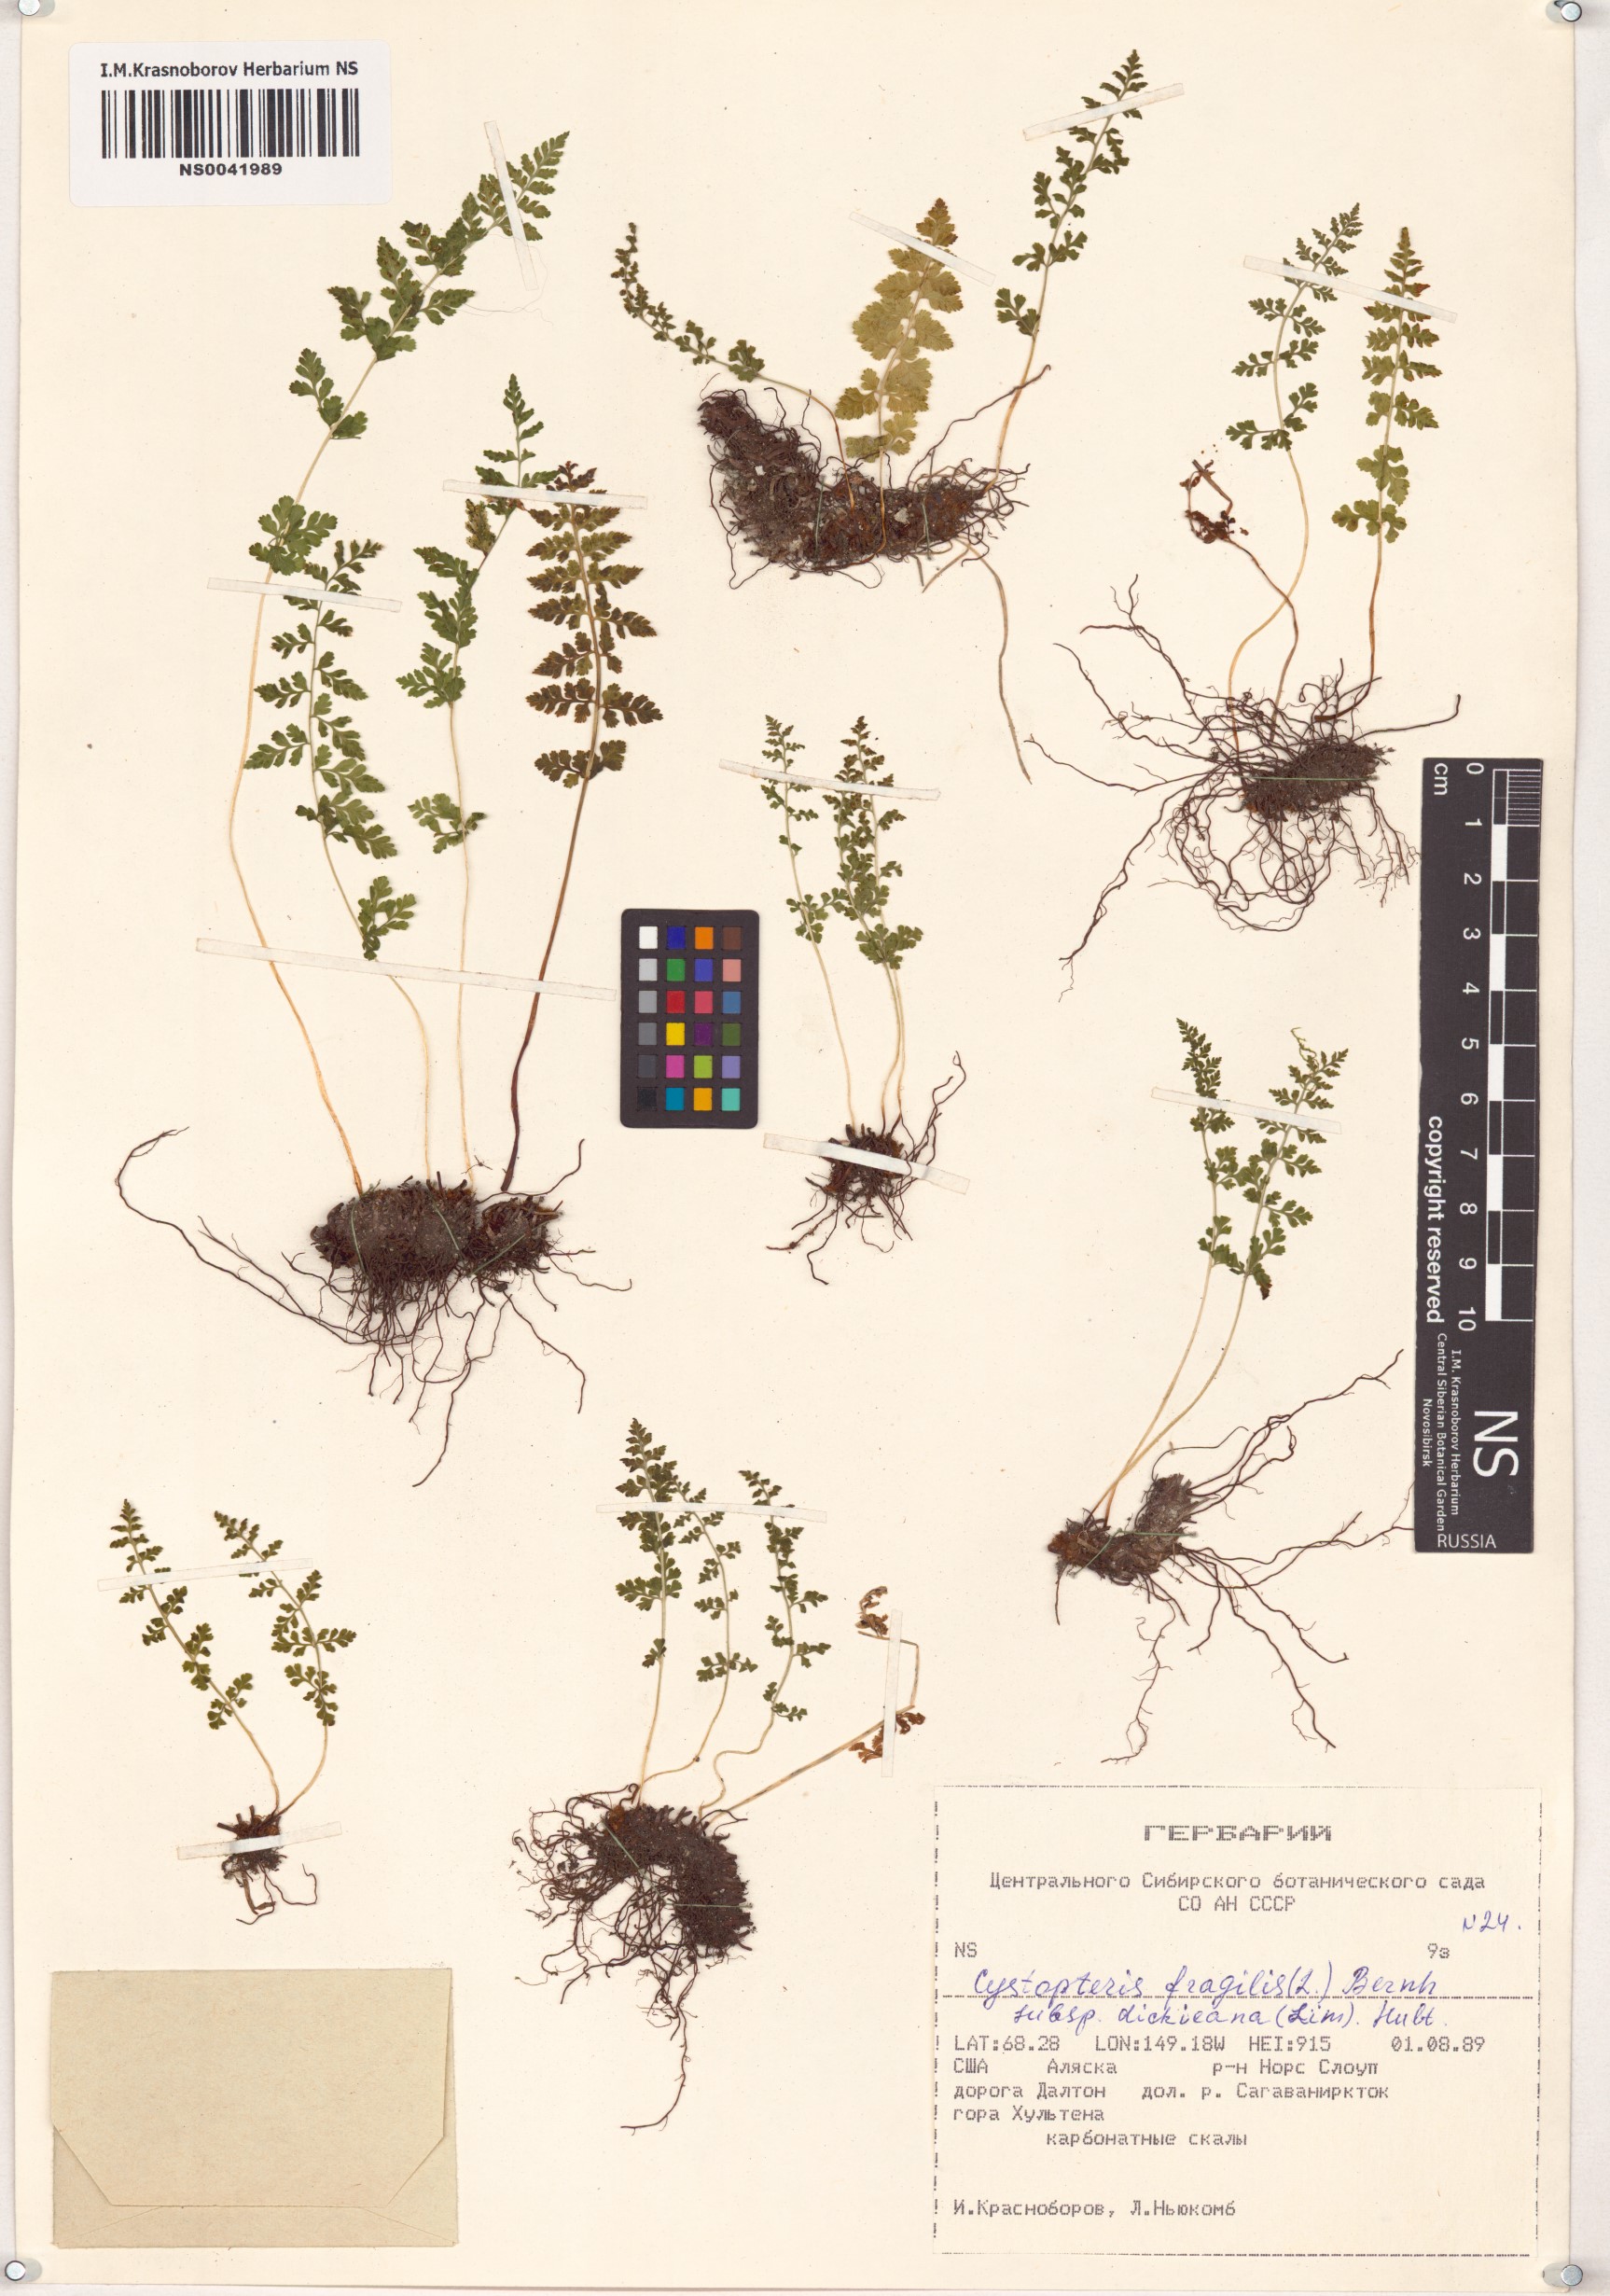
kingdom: Plantae
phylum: Tracheophyta
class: Polypodiopsida
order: Polypodiales
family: Cystopteridaceae
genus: Cystopteris
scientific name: Cystopteris dickieana
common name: Dickie's bladder-fern
